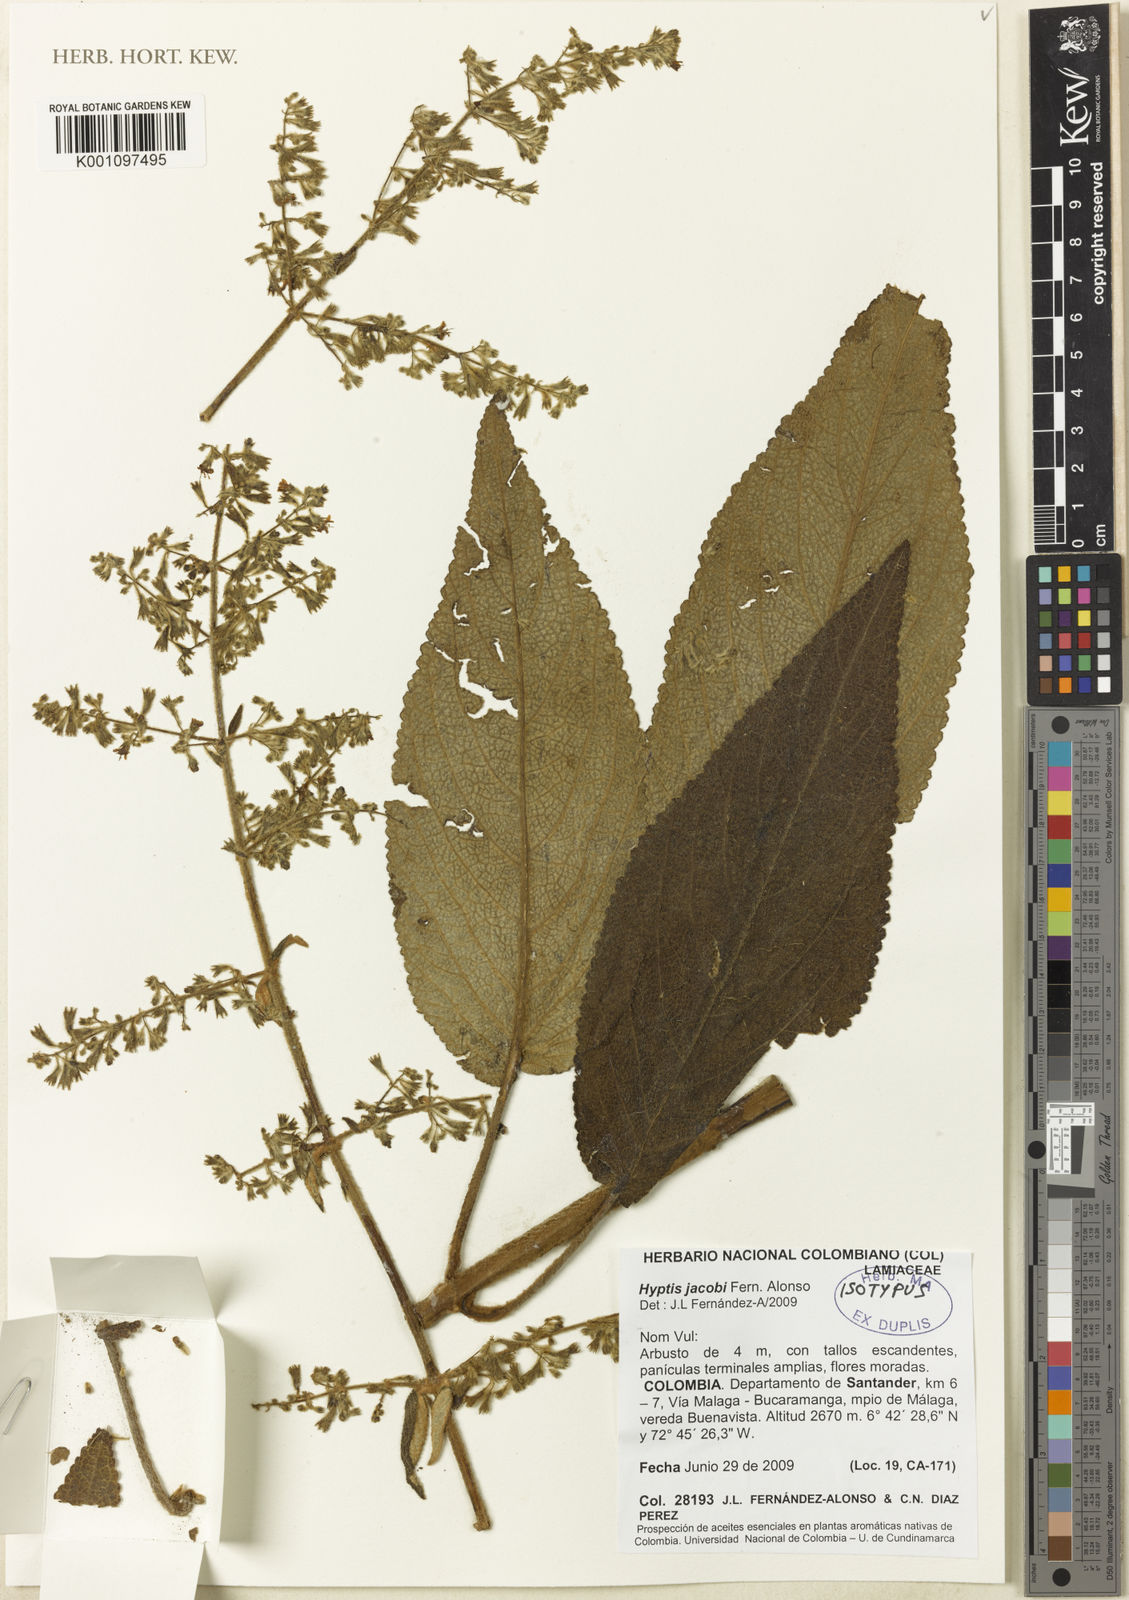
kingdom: Plantae
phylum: Tracheophyta
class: Magnoliopsida
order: Lamiales
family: Lamiaceae
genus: Condea
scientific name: Condea jacobi
